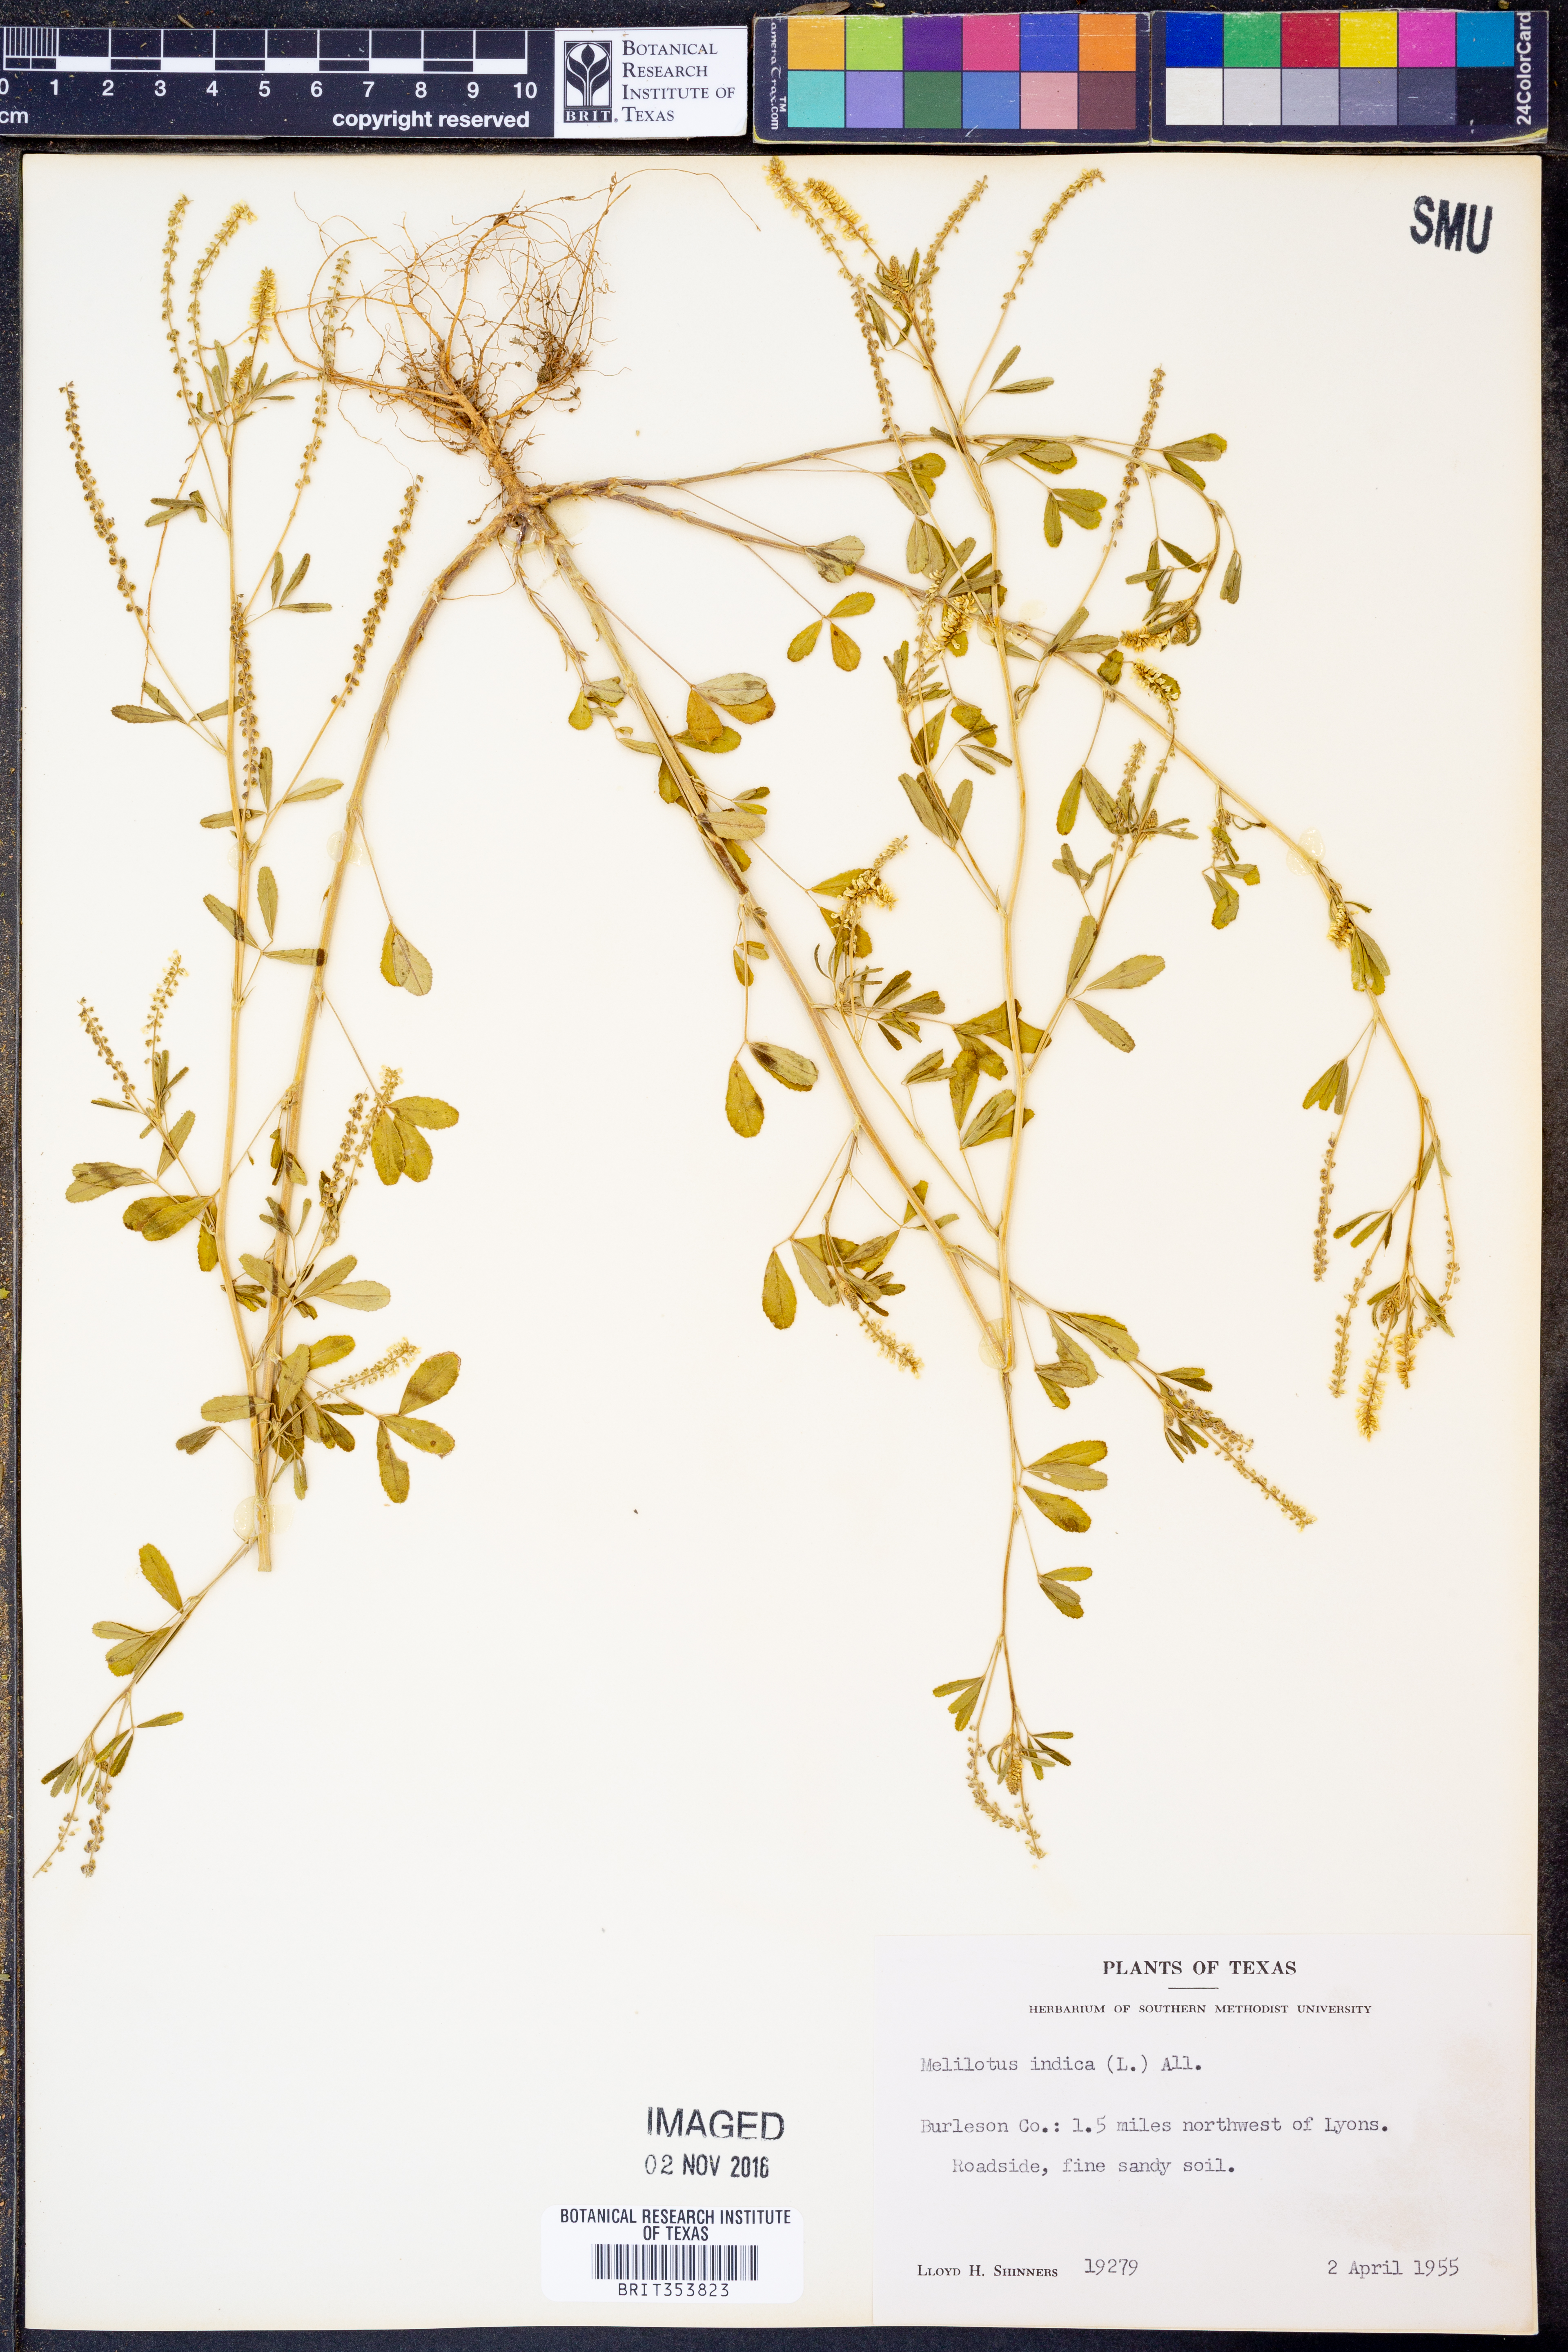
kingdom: Plantae
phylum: Tracheophyta
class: Magnoliopsida
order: Fabales
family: Fabaceae
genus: Melilotus
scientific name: Melilotus indicus
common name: Small melilot
